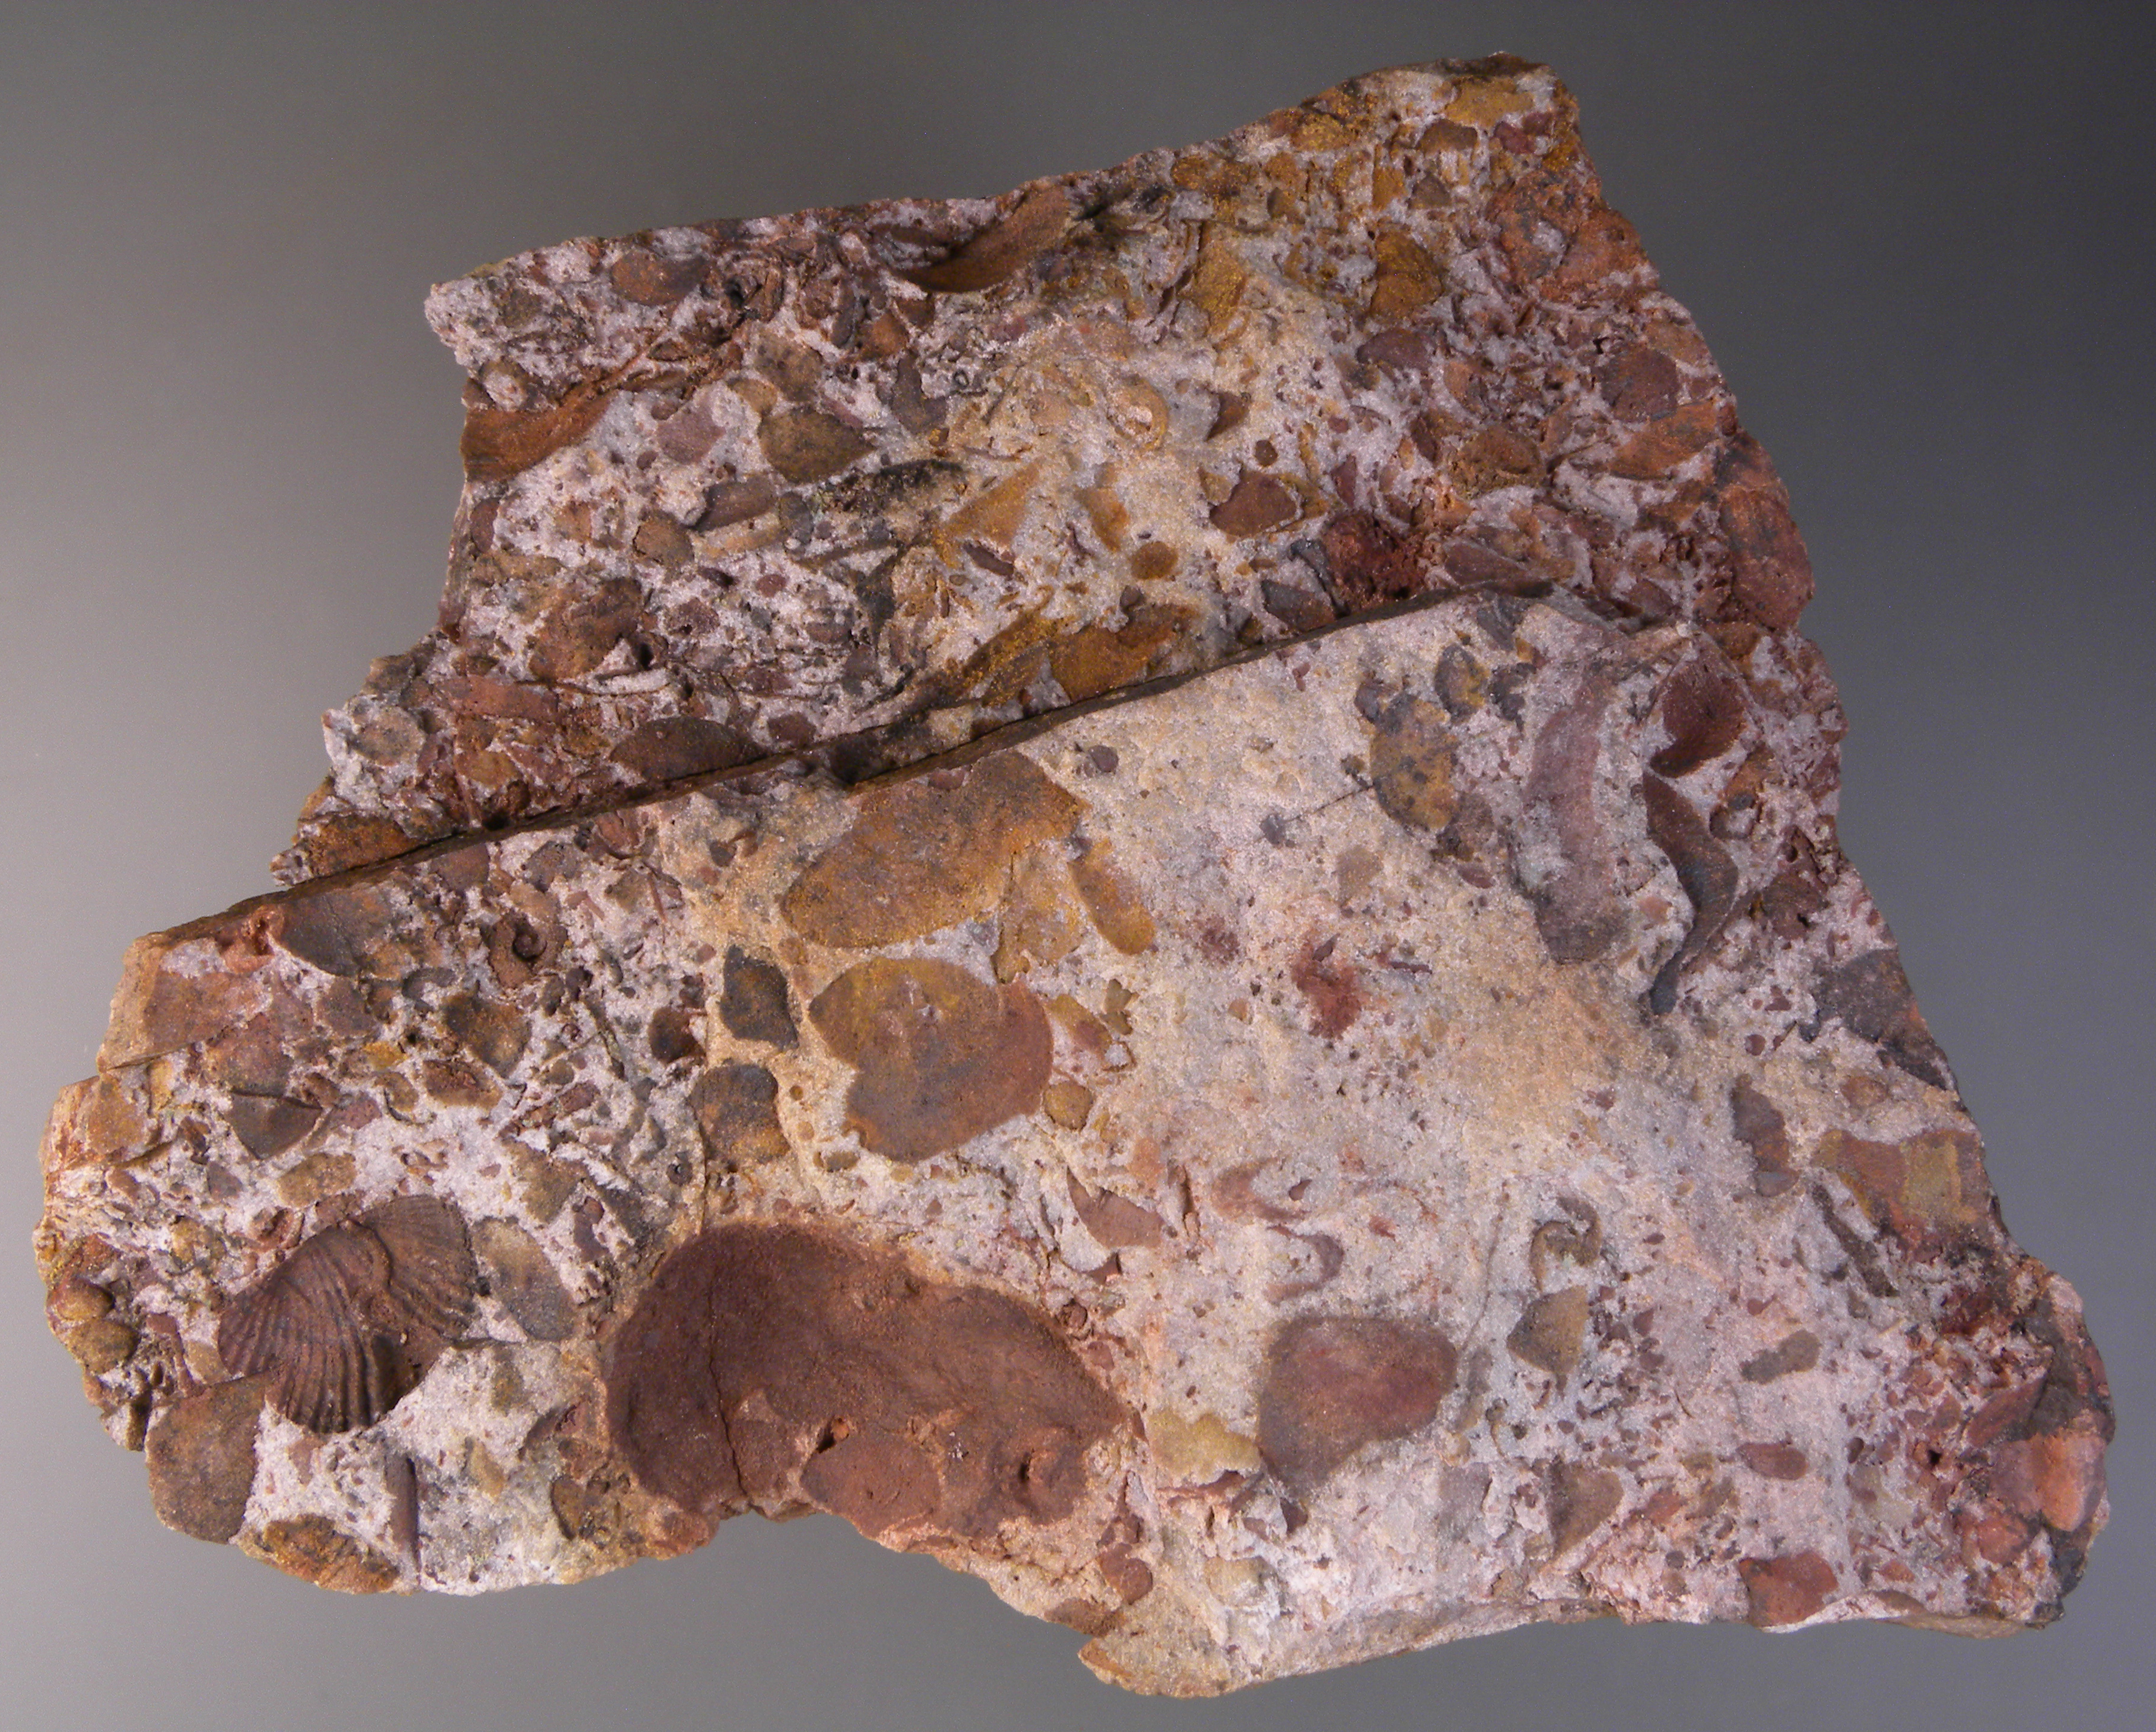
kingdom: Animalia
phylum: Brachiopoda
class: Rhynchonellata
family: Rhipidomellidae
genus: Platyorthis
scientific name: Platyorthis
